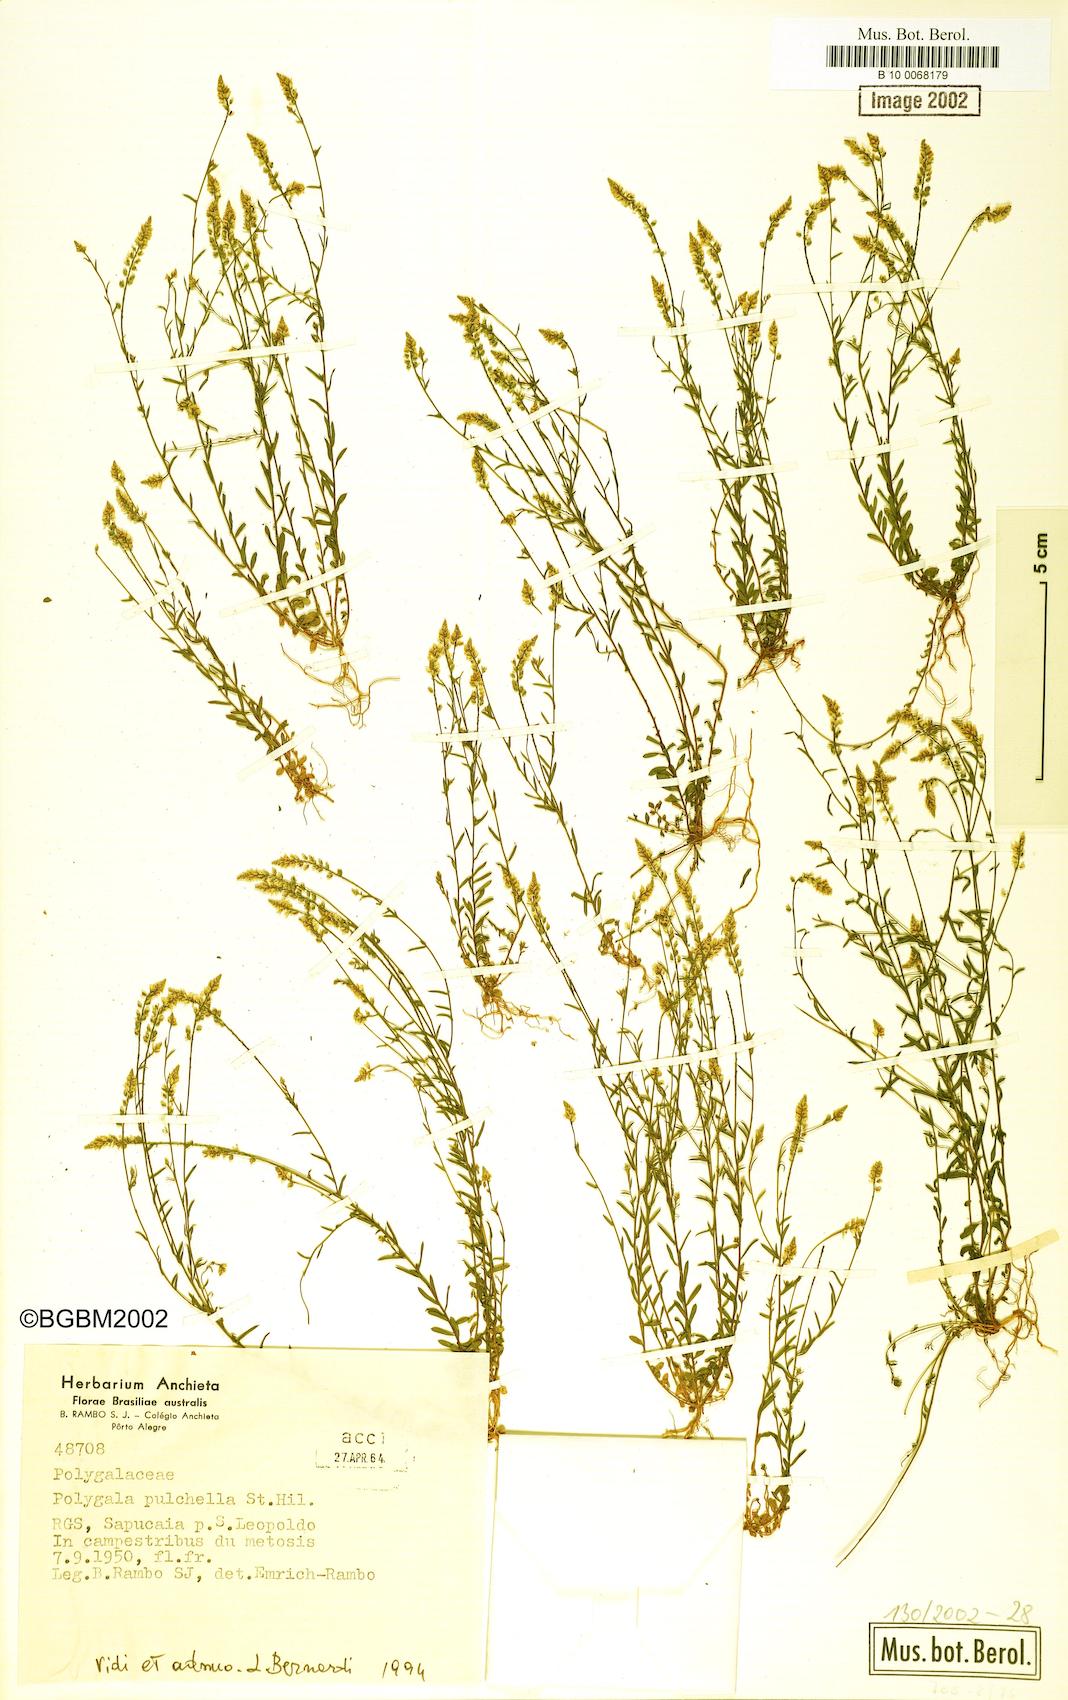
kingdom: Plantae
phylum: Tracheophyta
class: Magnoliopsida
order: Fabales
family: Polygalaceae
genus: Polygala
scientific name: Polygala pulchella
